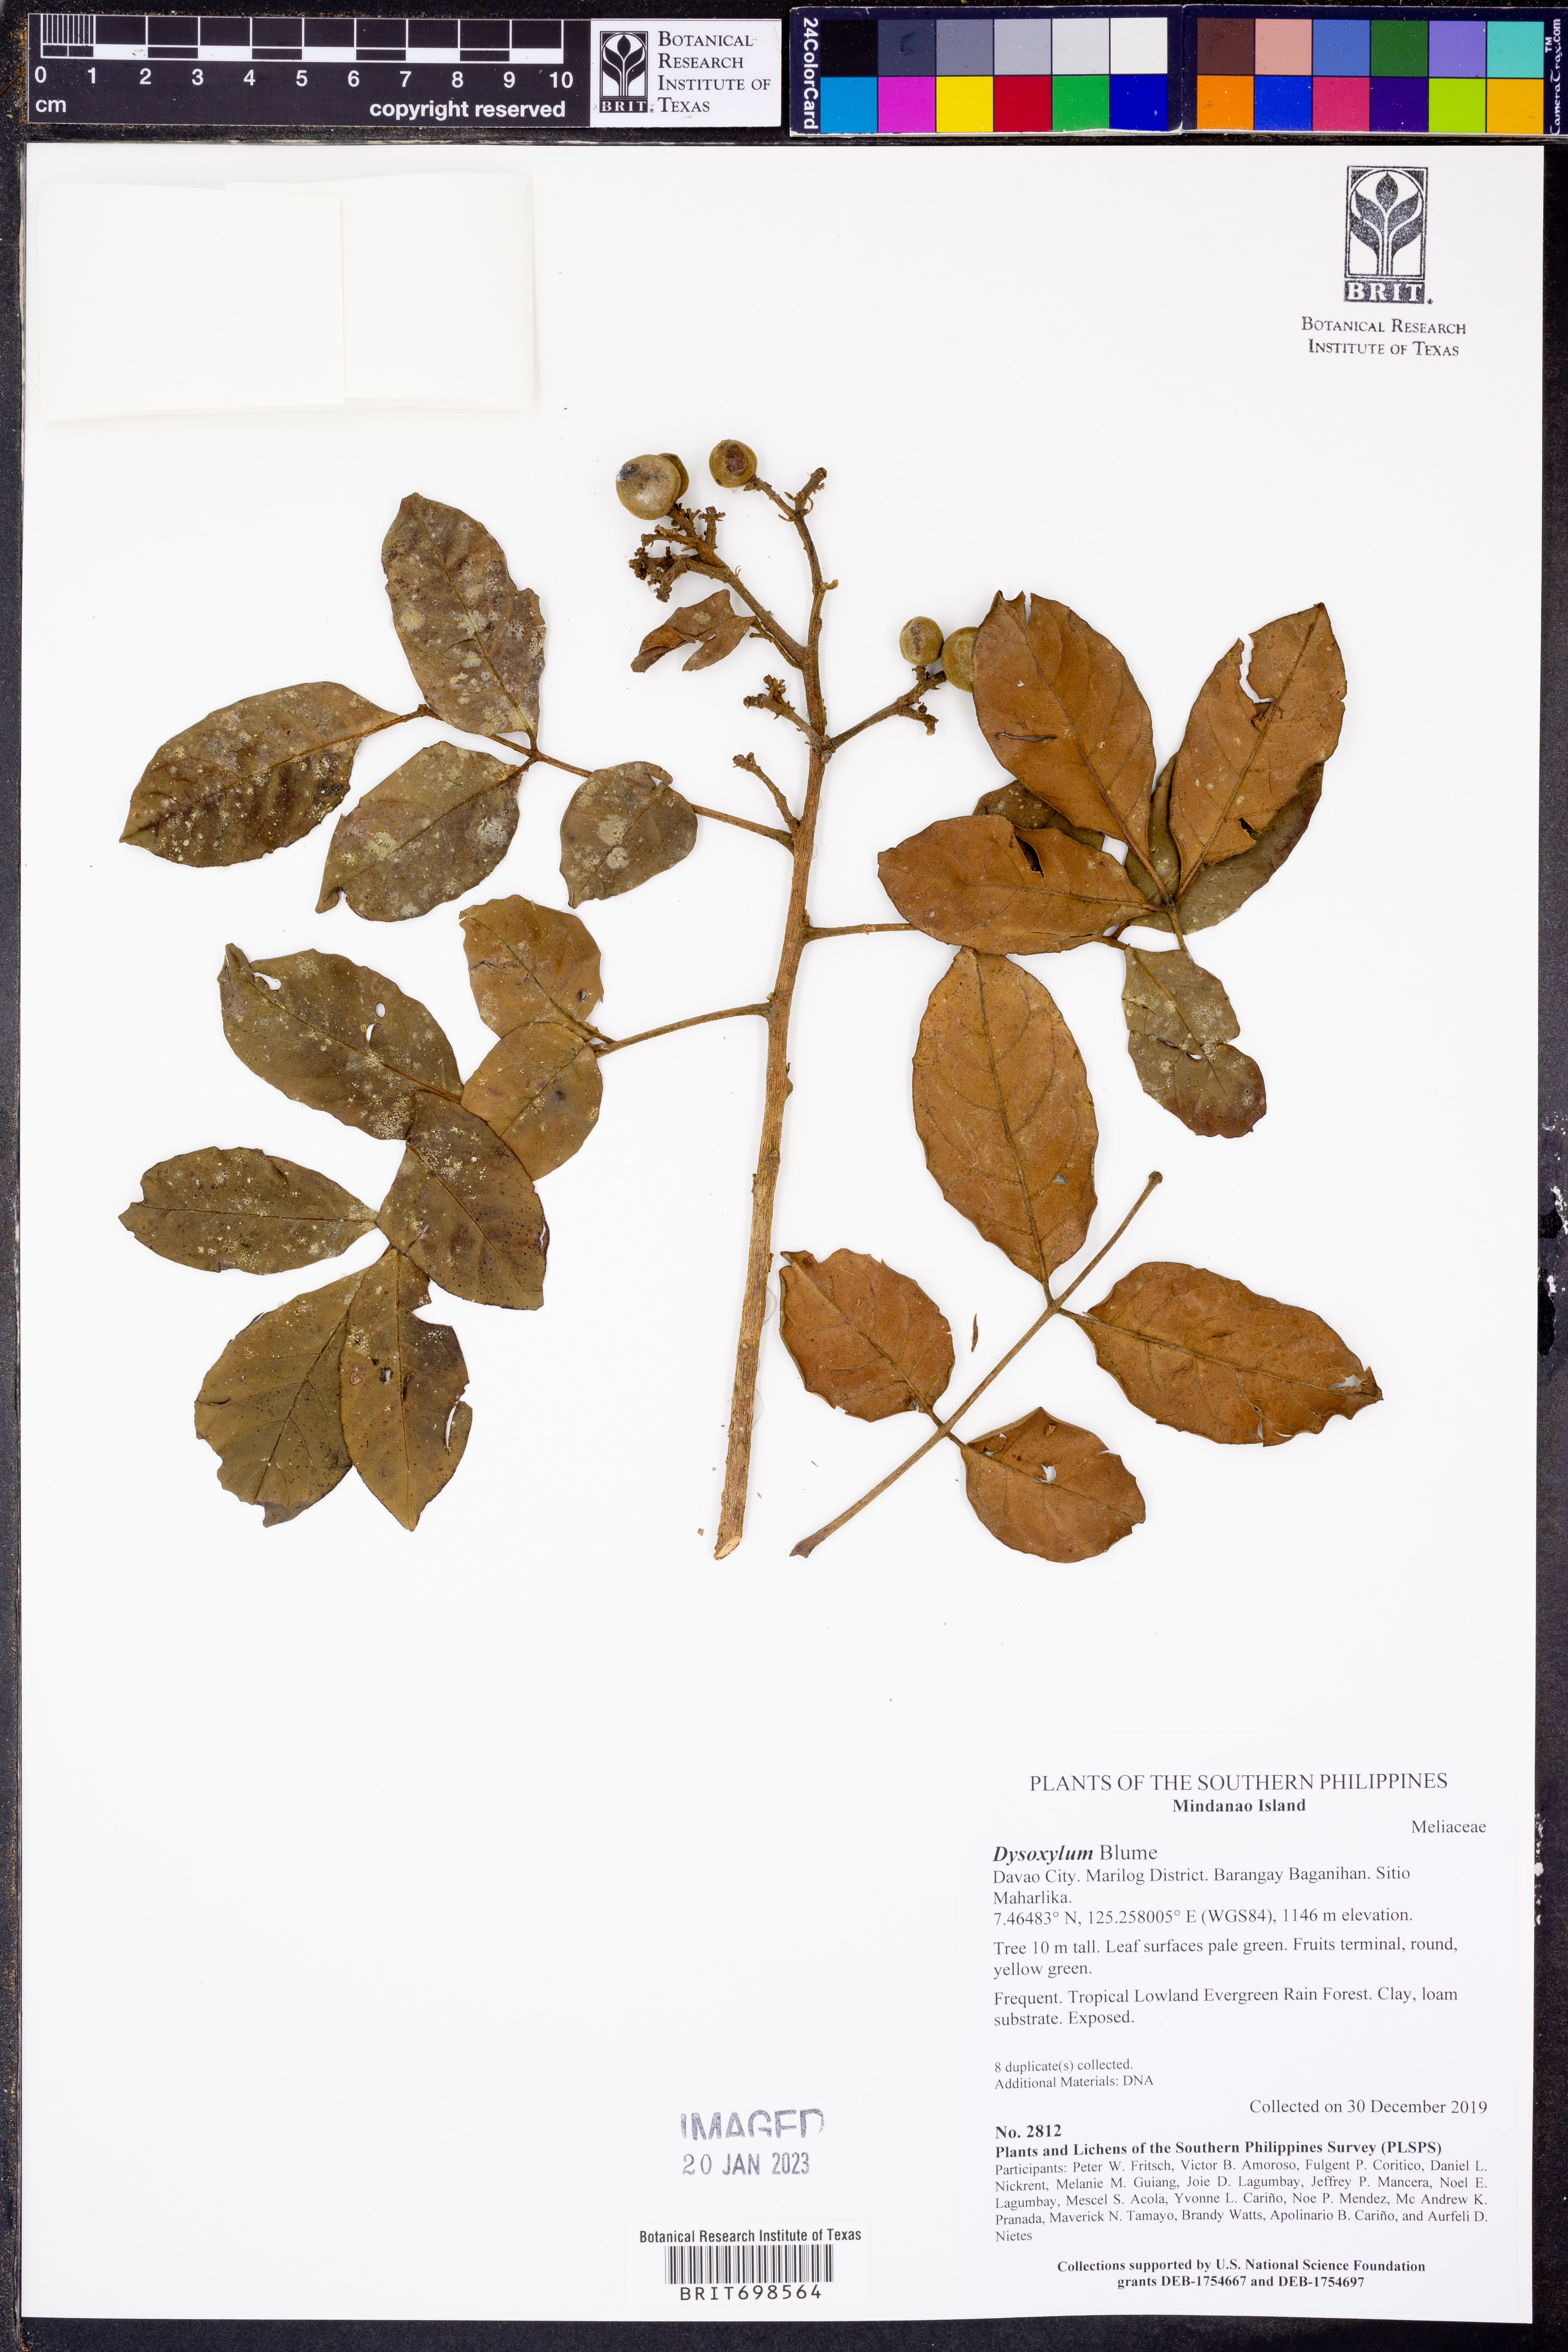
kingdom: Plantae
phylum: Tracheophyta
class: Magnoliopsida
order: Sapindales
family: Meliaceae
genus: Dysoxylum
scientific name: Dysoxylum
